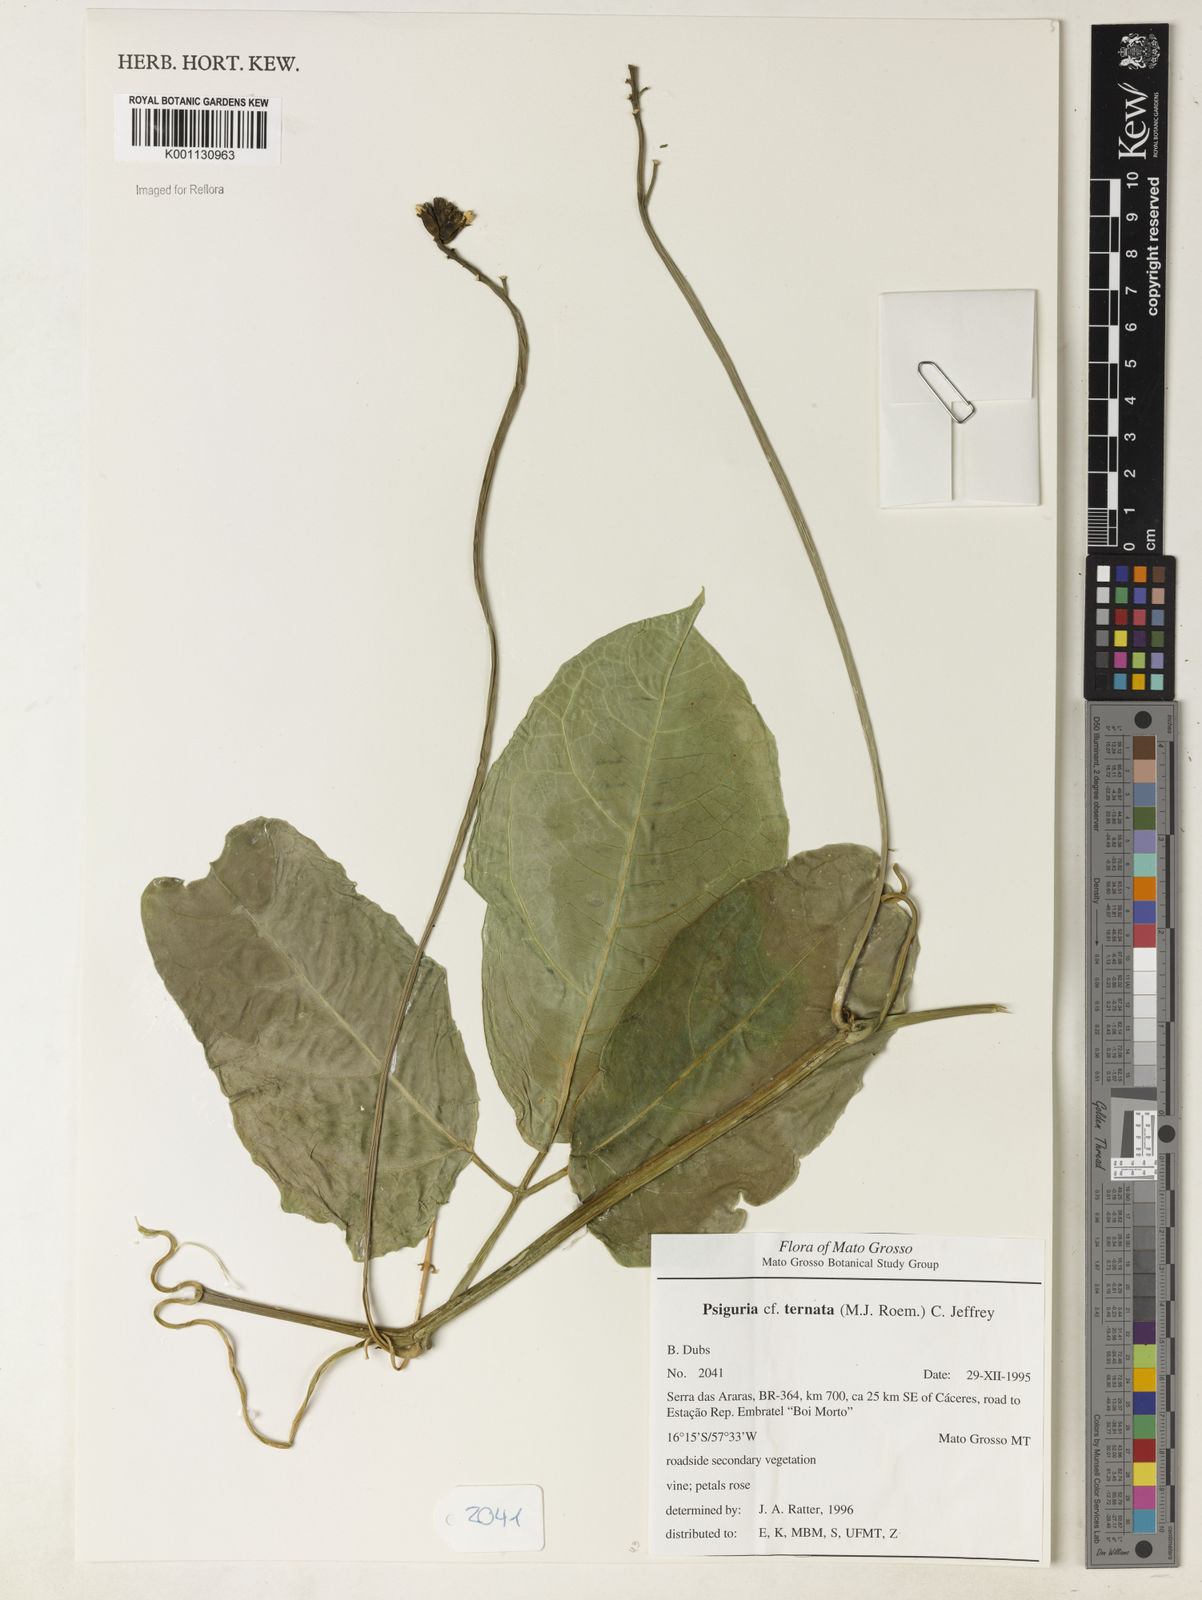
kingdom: Plantae
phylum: Tracheophyta
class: Magnoliopsida
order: Cucurbitales
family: Cucurbitaceae
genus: Psiguria
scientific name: Psiguria ternata
